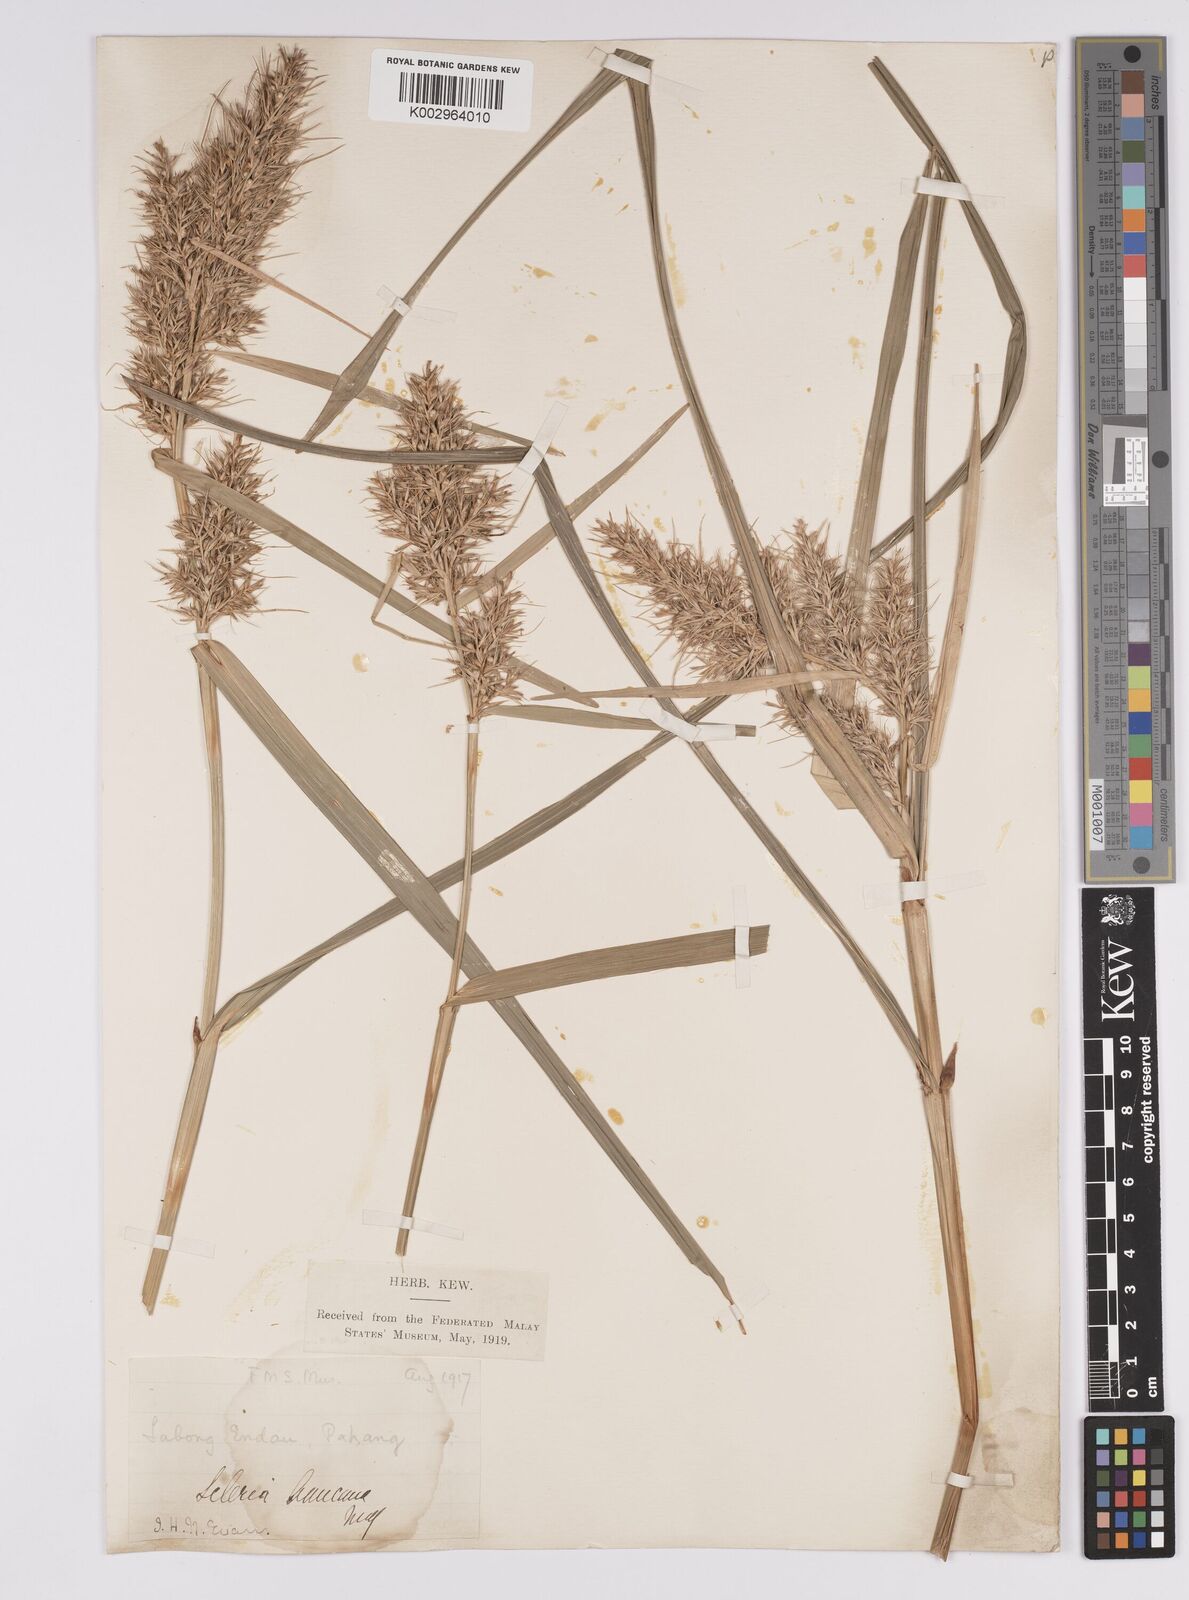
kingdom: Plantae
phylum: Tracheophyta
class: Liliopsida
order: Poales
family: Cyperaceae
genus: Scleria
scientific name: Scleria ciliaris
